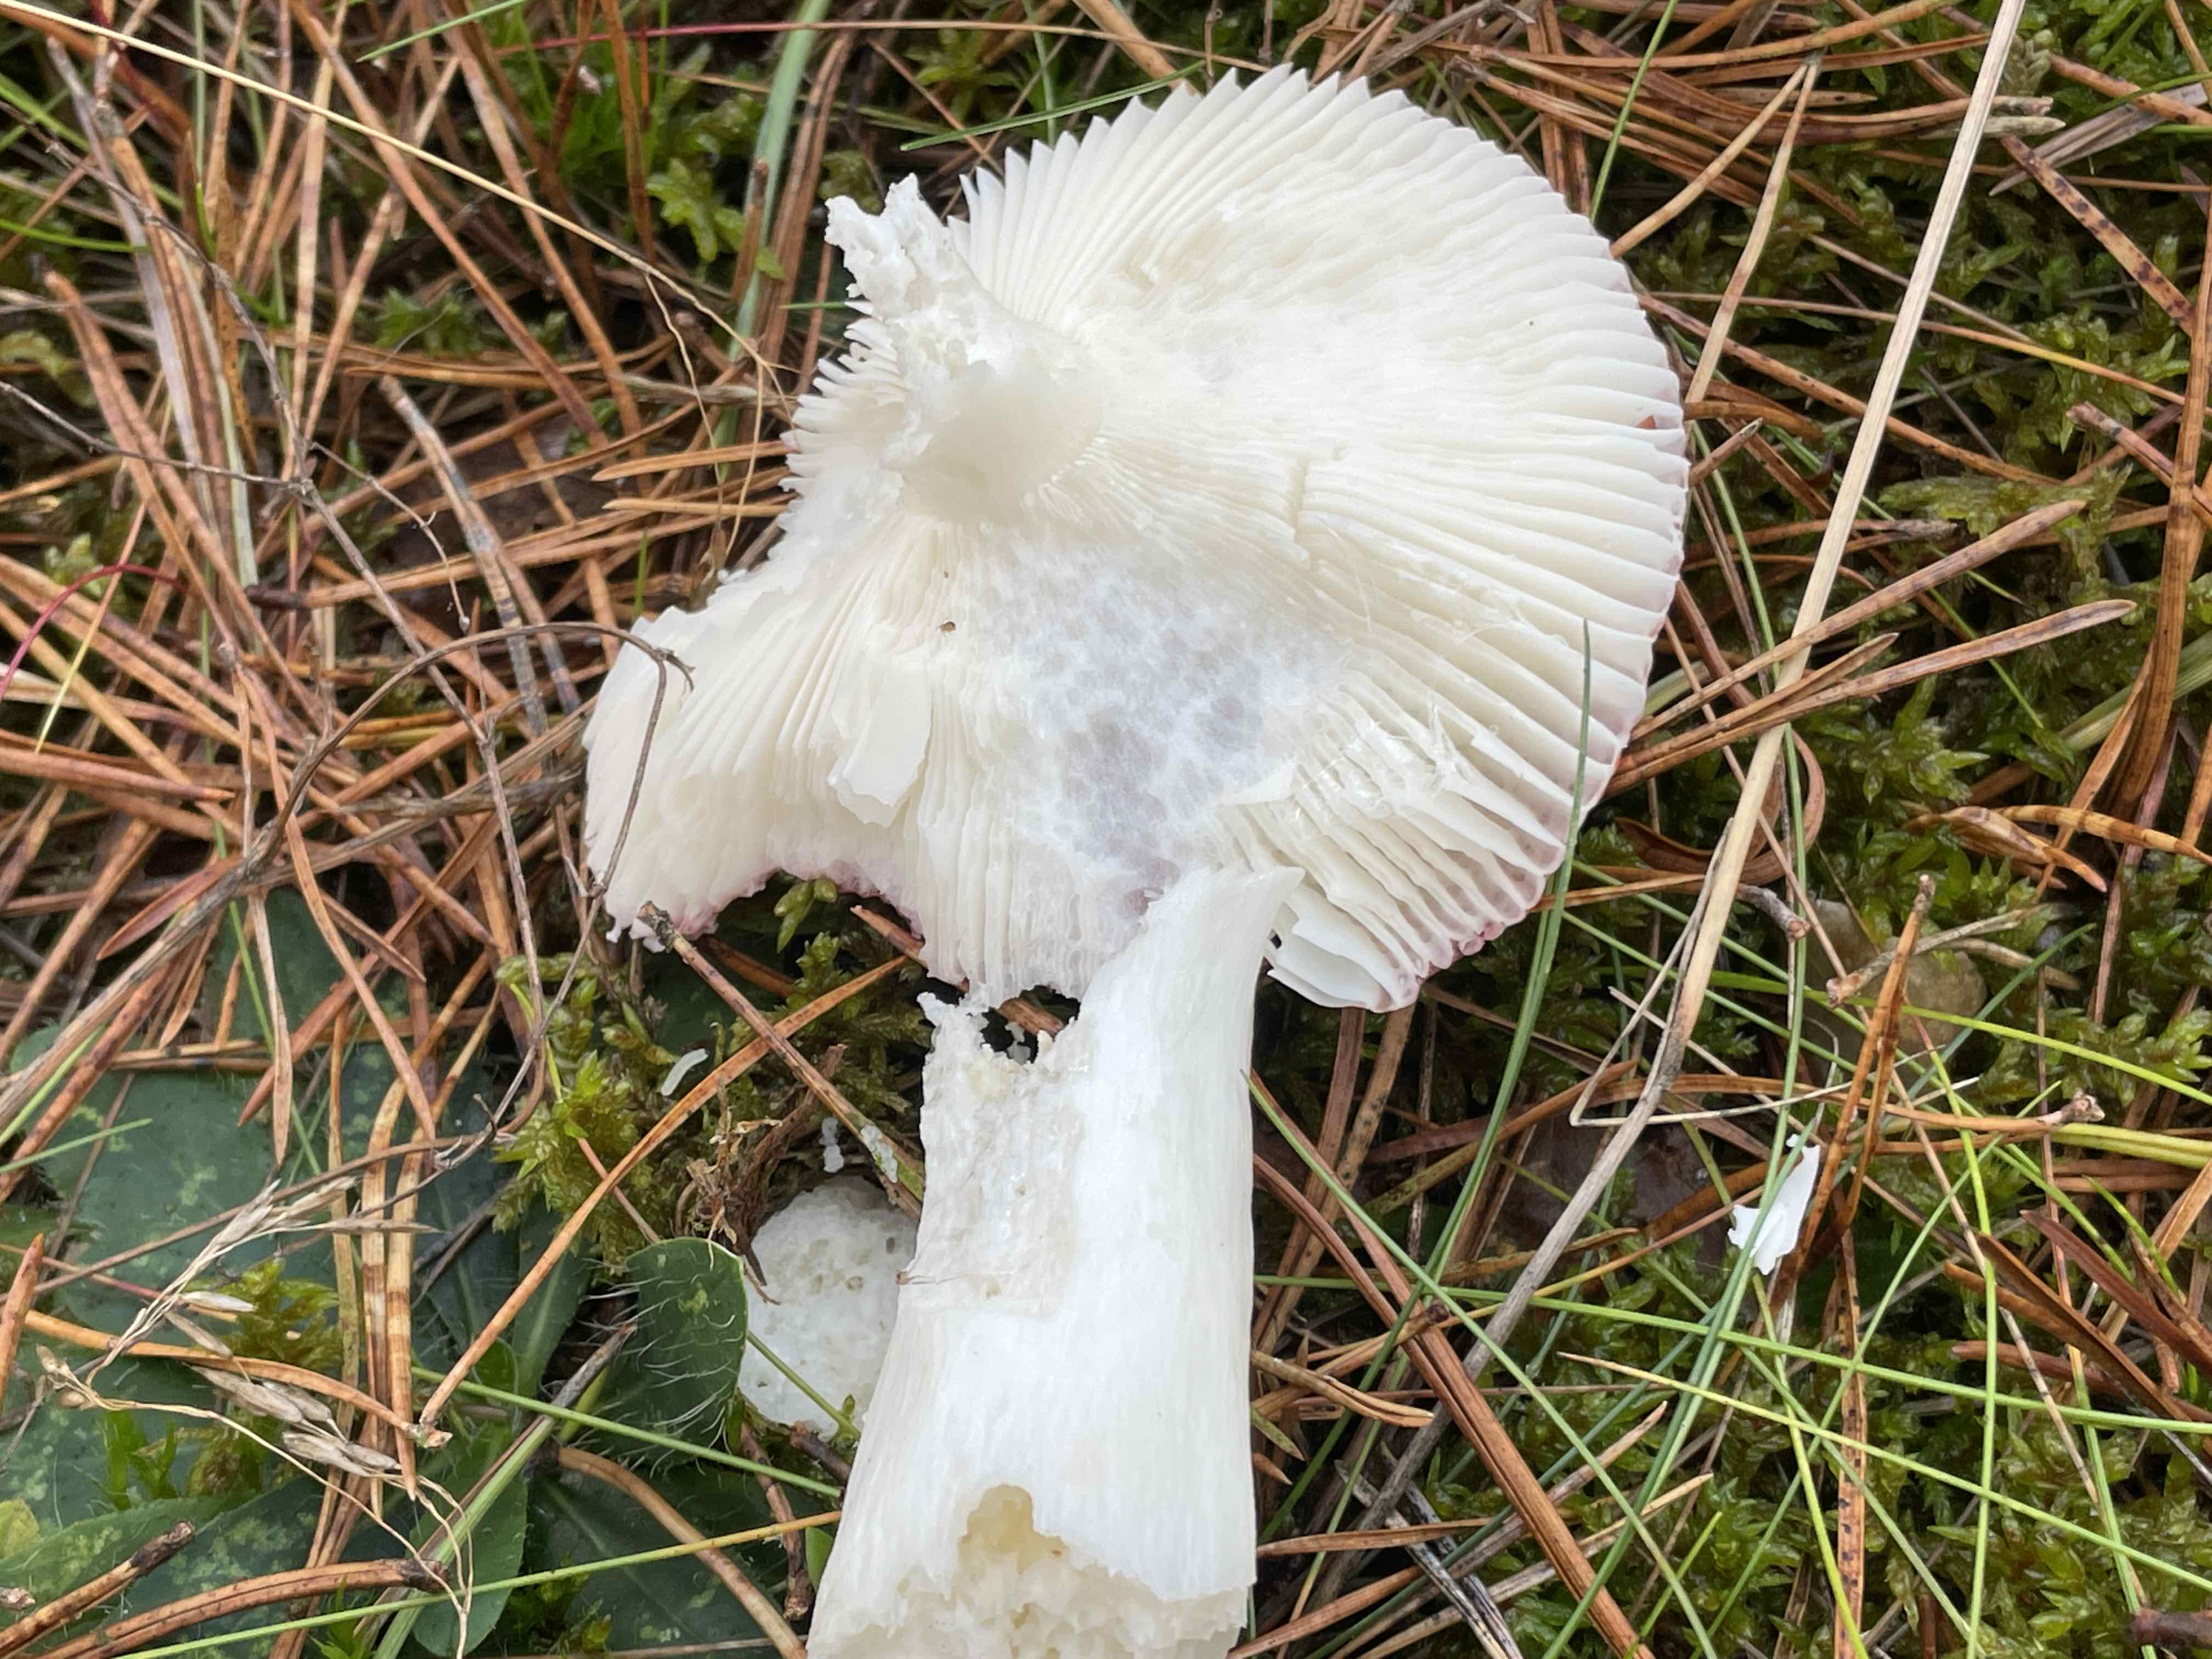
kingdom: Fungi
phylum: Basidiomycota
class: Agaricomycetes
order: Russulales
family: Russulaceae
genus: Russula
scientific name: Russula emetica
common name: stor gift-skørhat
